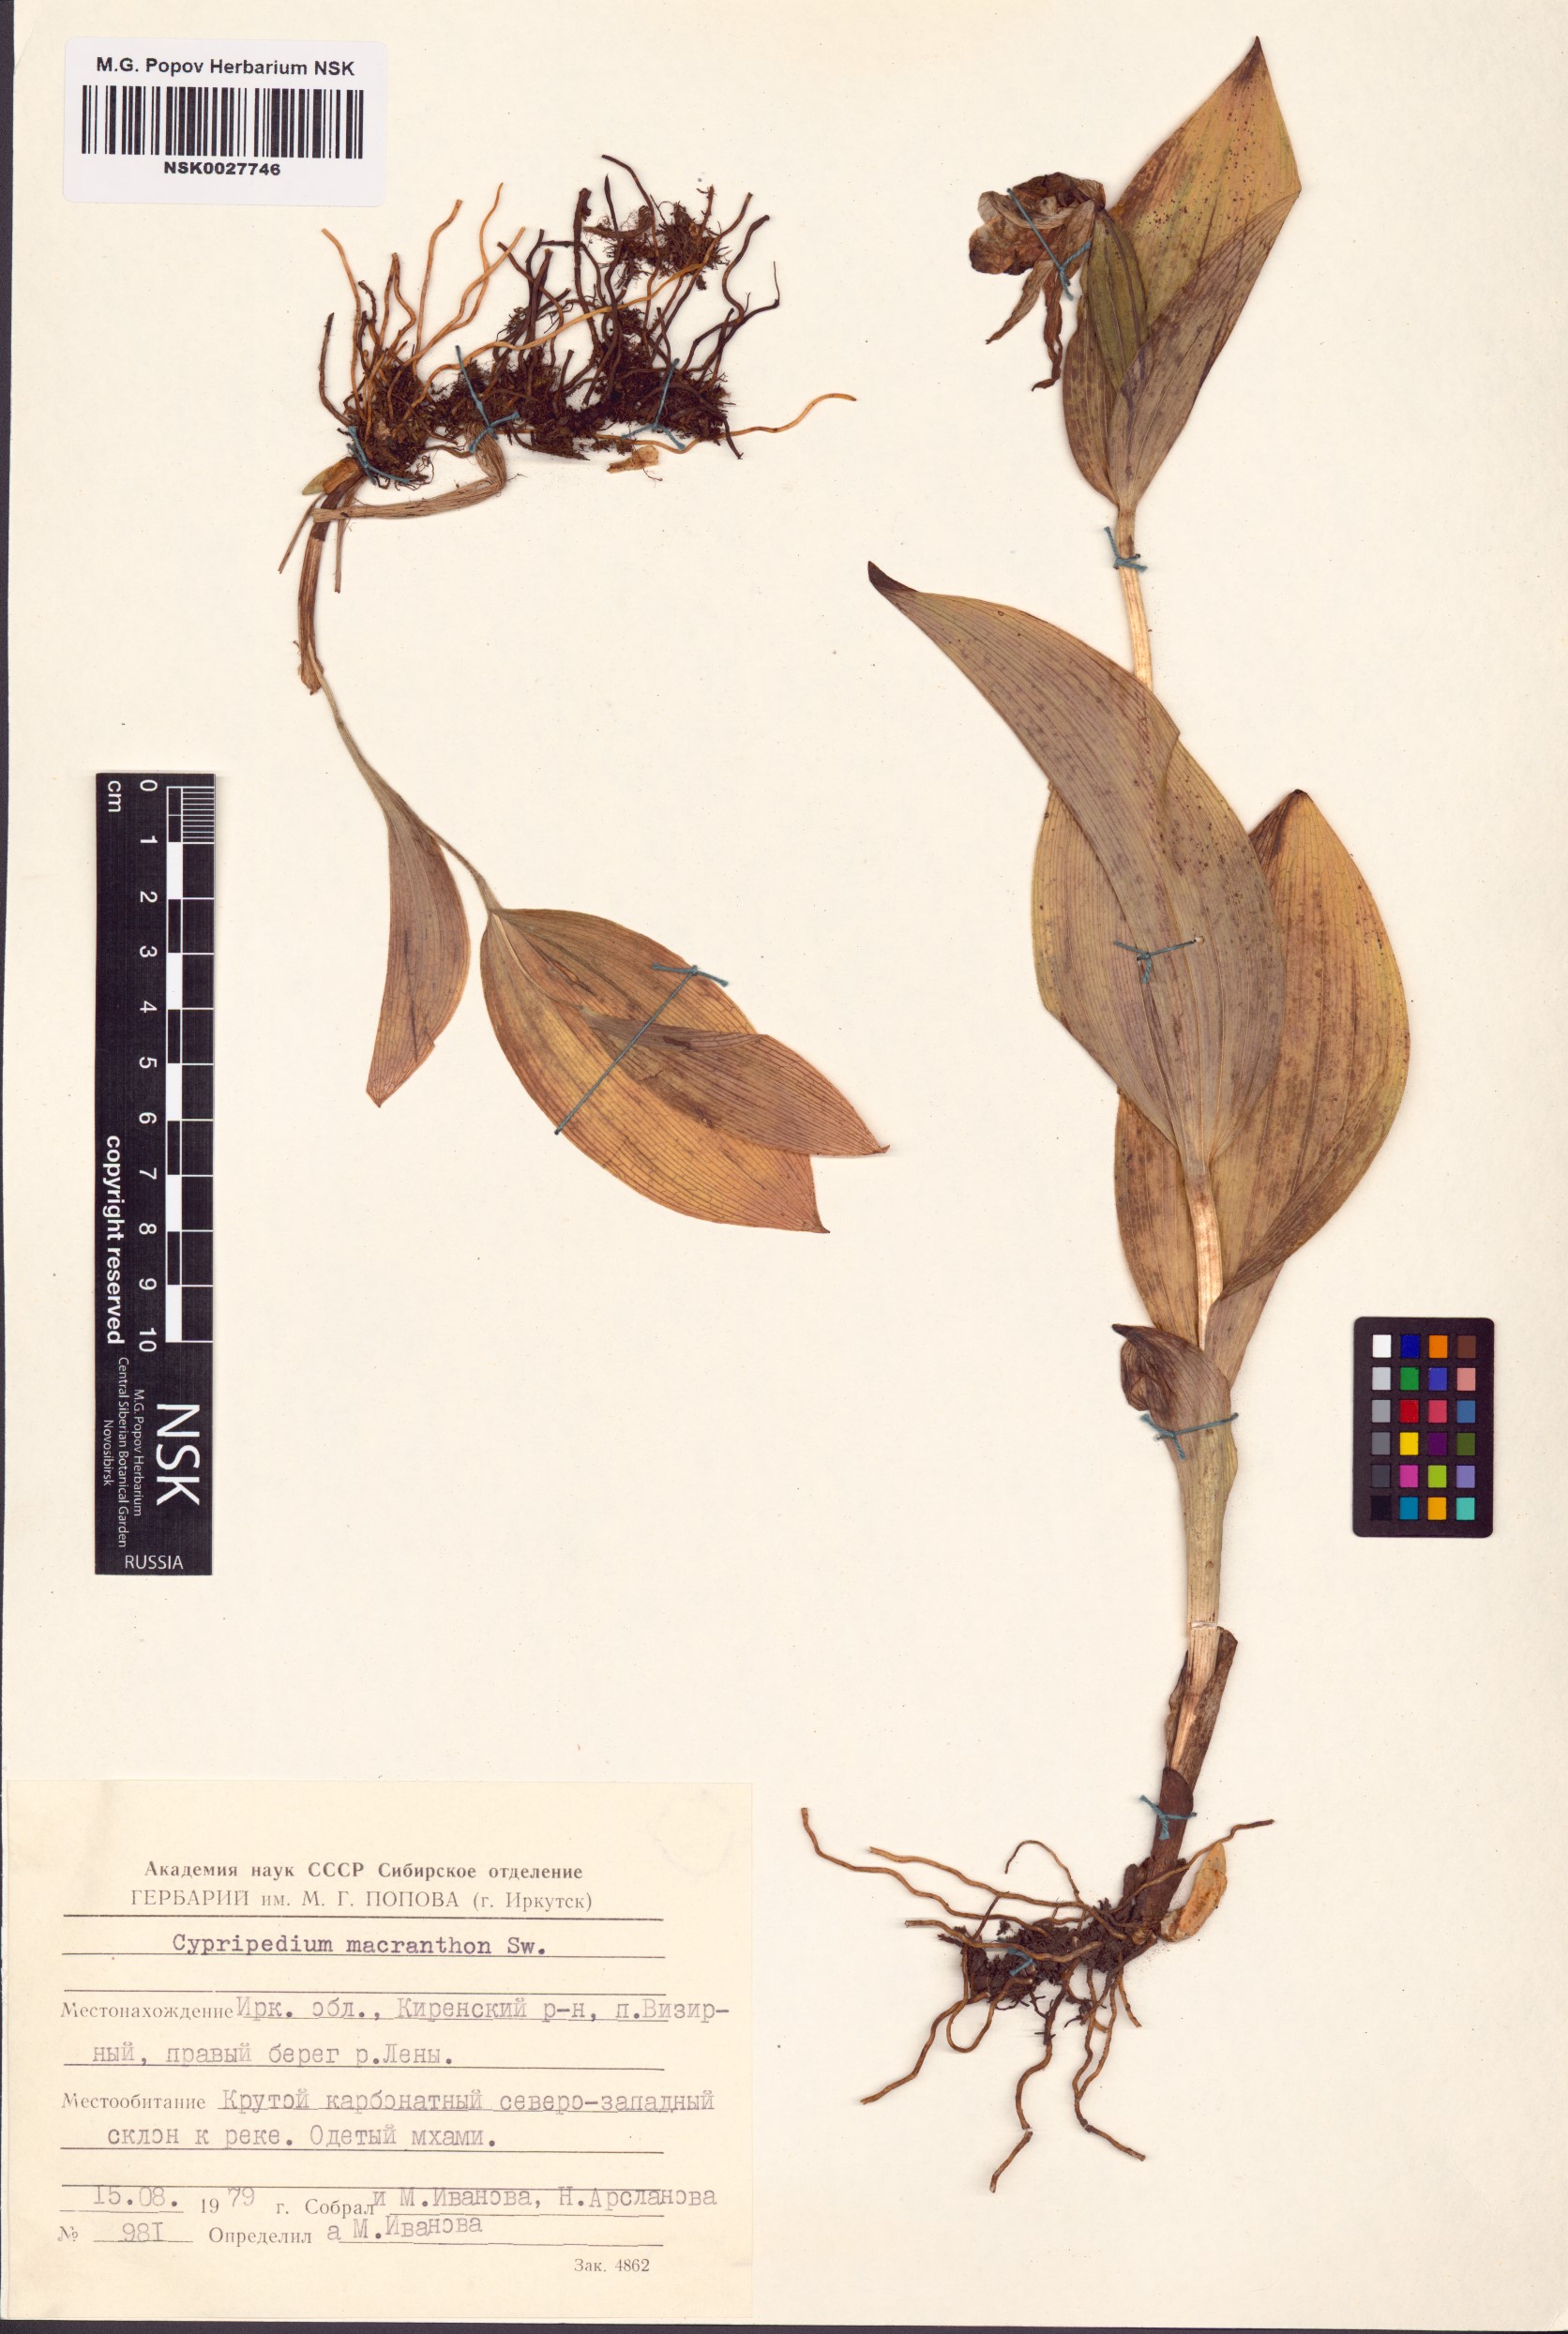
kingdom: Plantae
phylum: Tracheophyta
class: Liliopsida
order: Asparagales
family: Orchidaceae
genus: Cypripedium
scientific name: Cypripedium macranthos
